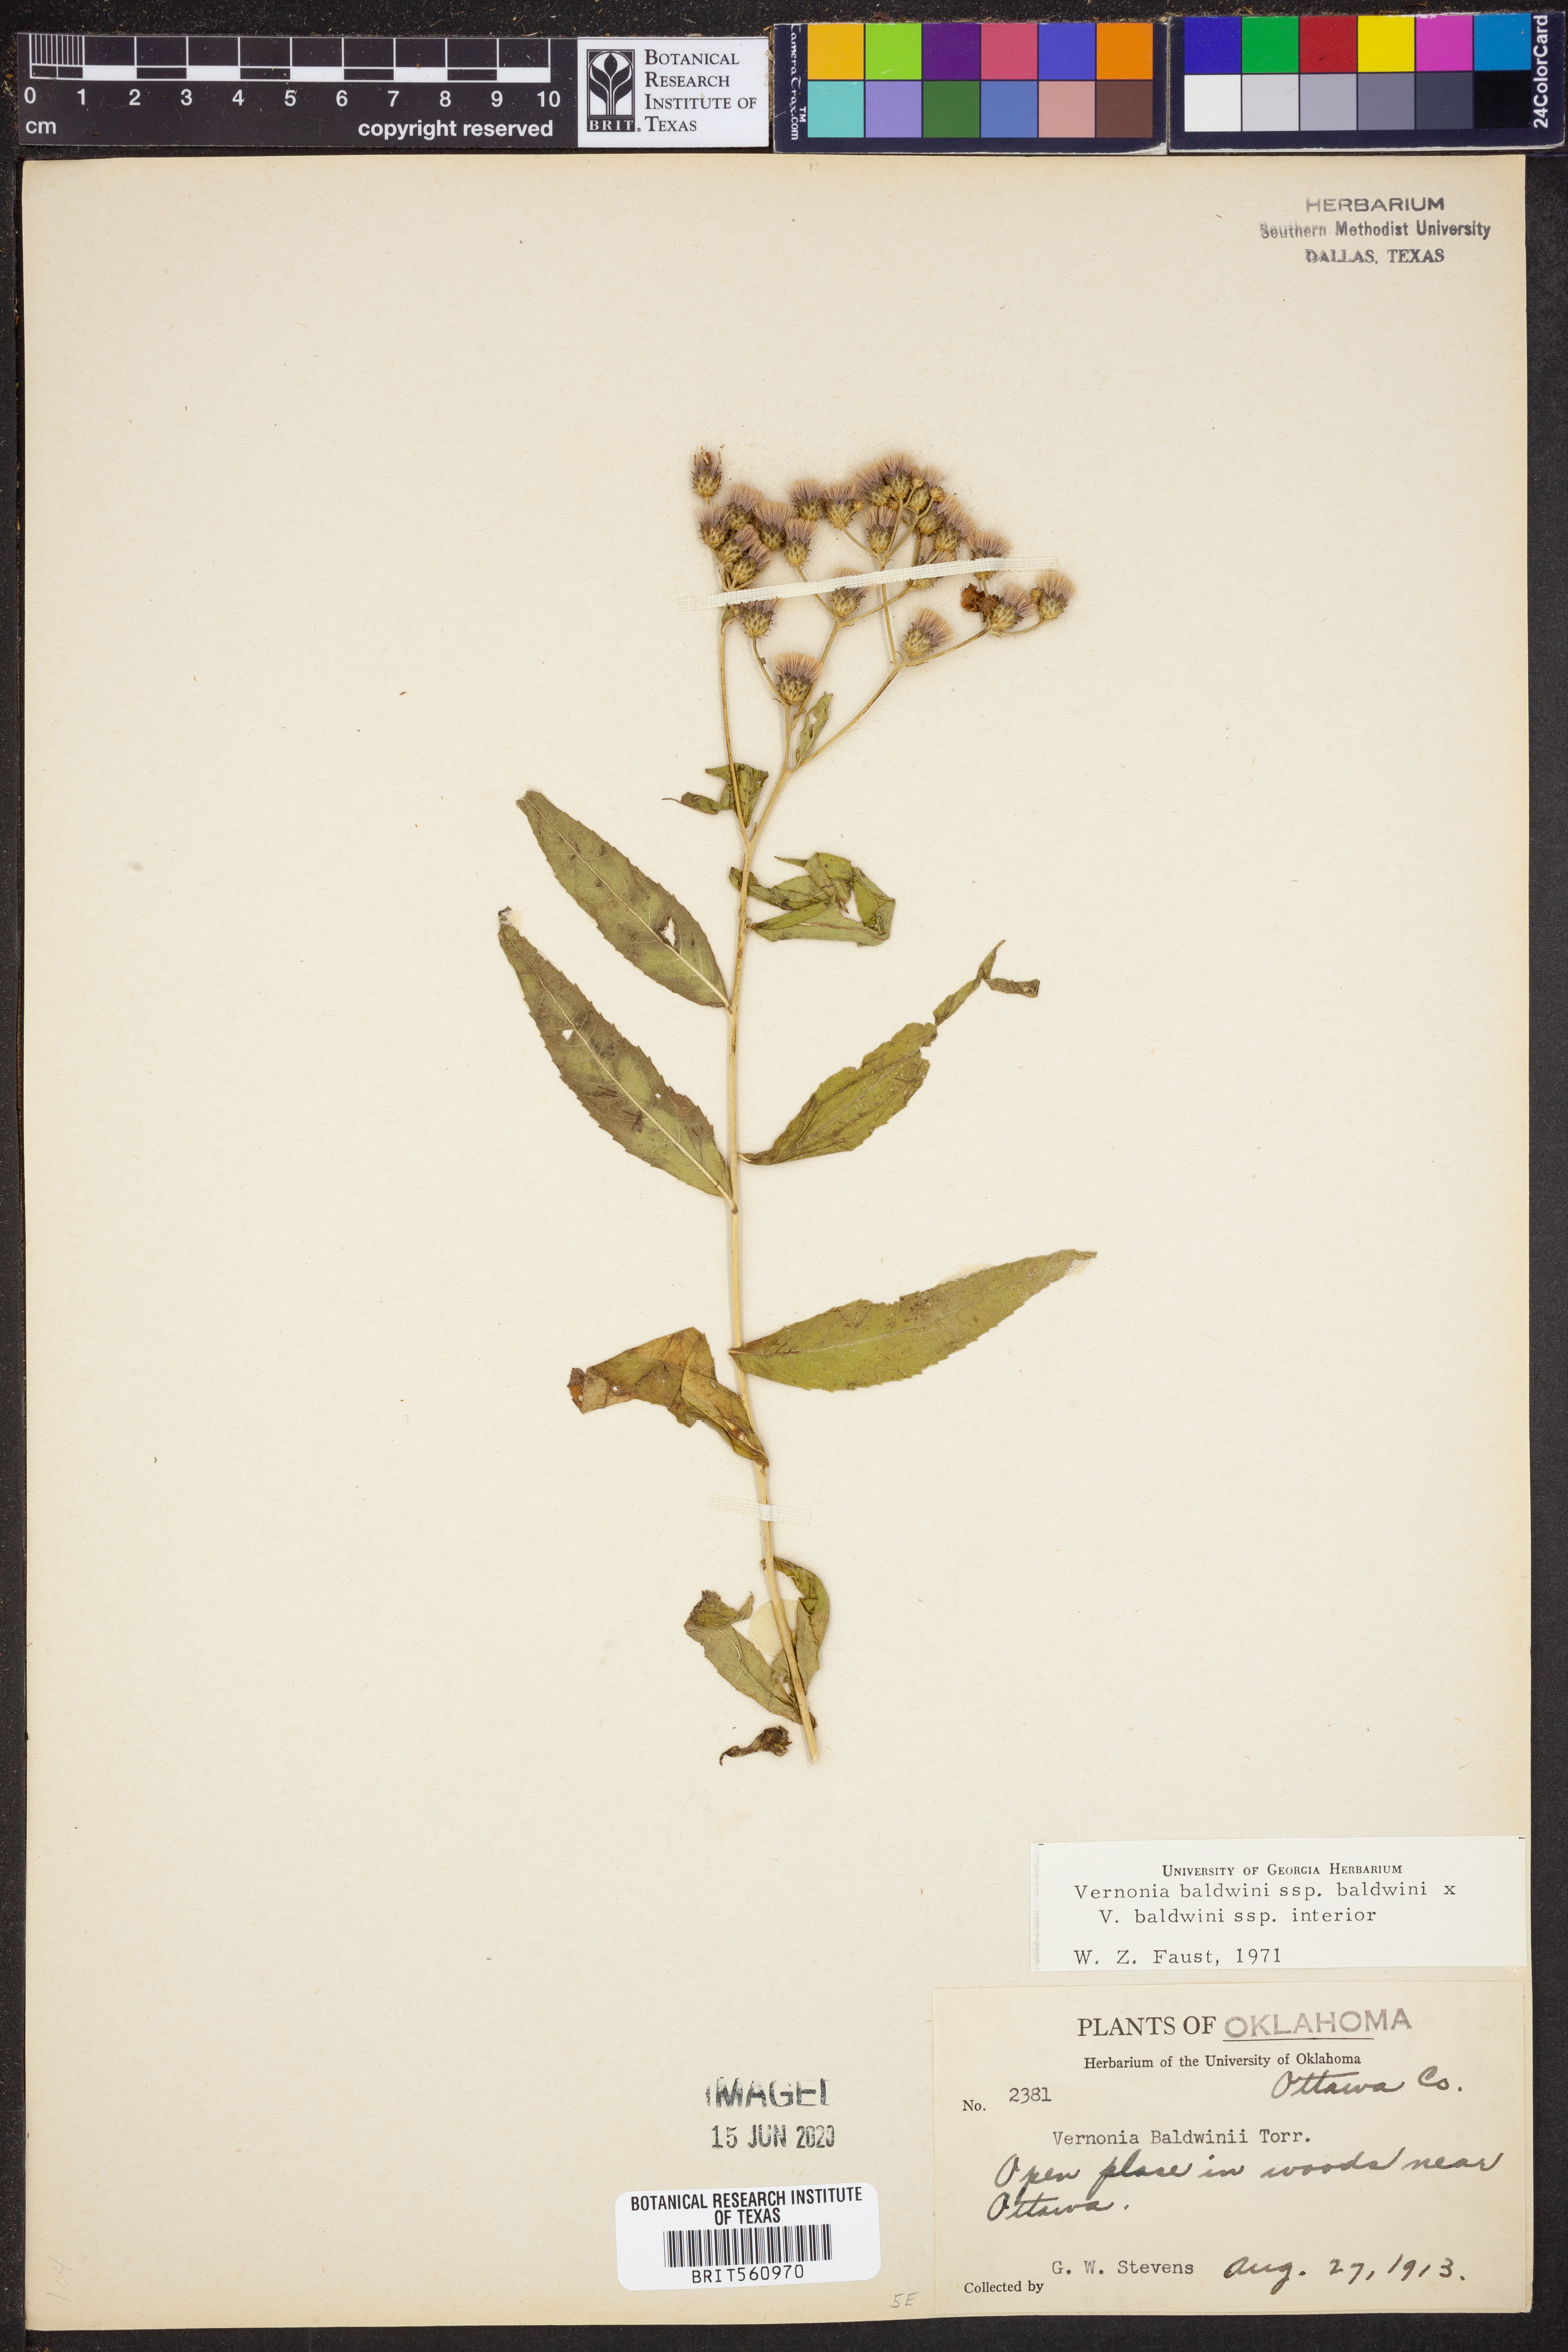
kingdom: Plantae
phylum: Tracheophyta
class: Magnoliopsida
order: Asterales
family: Asteraceae
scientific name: Asteraceae
